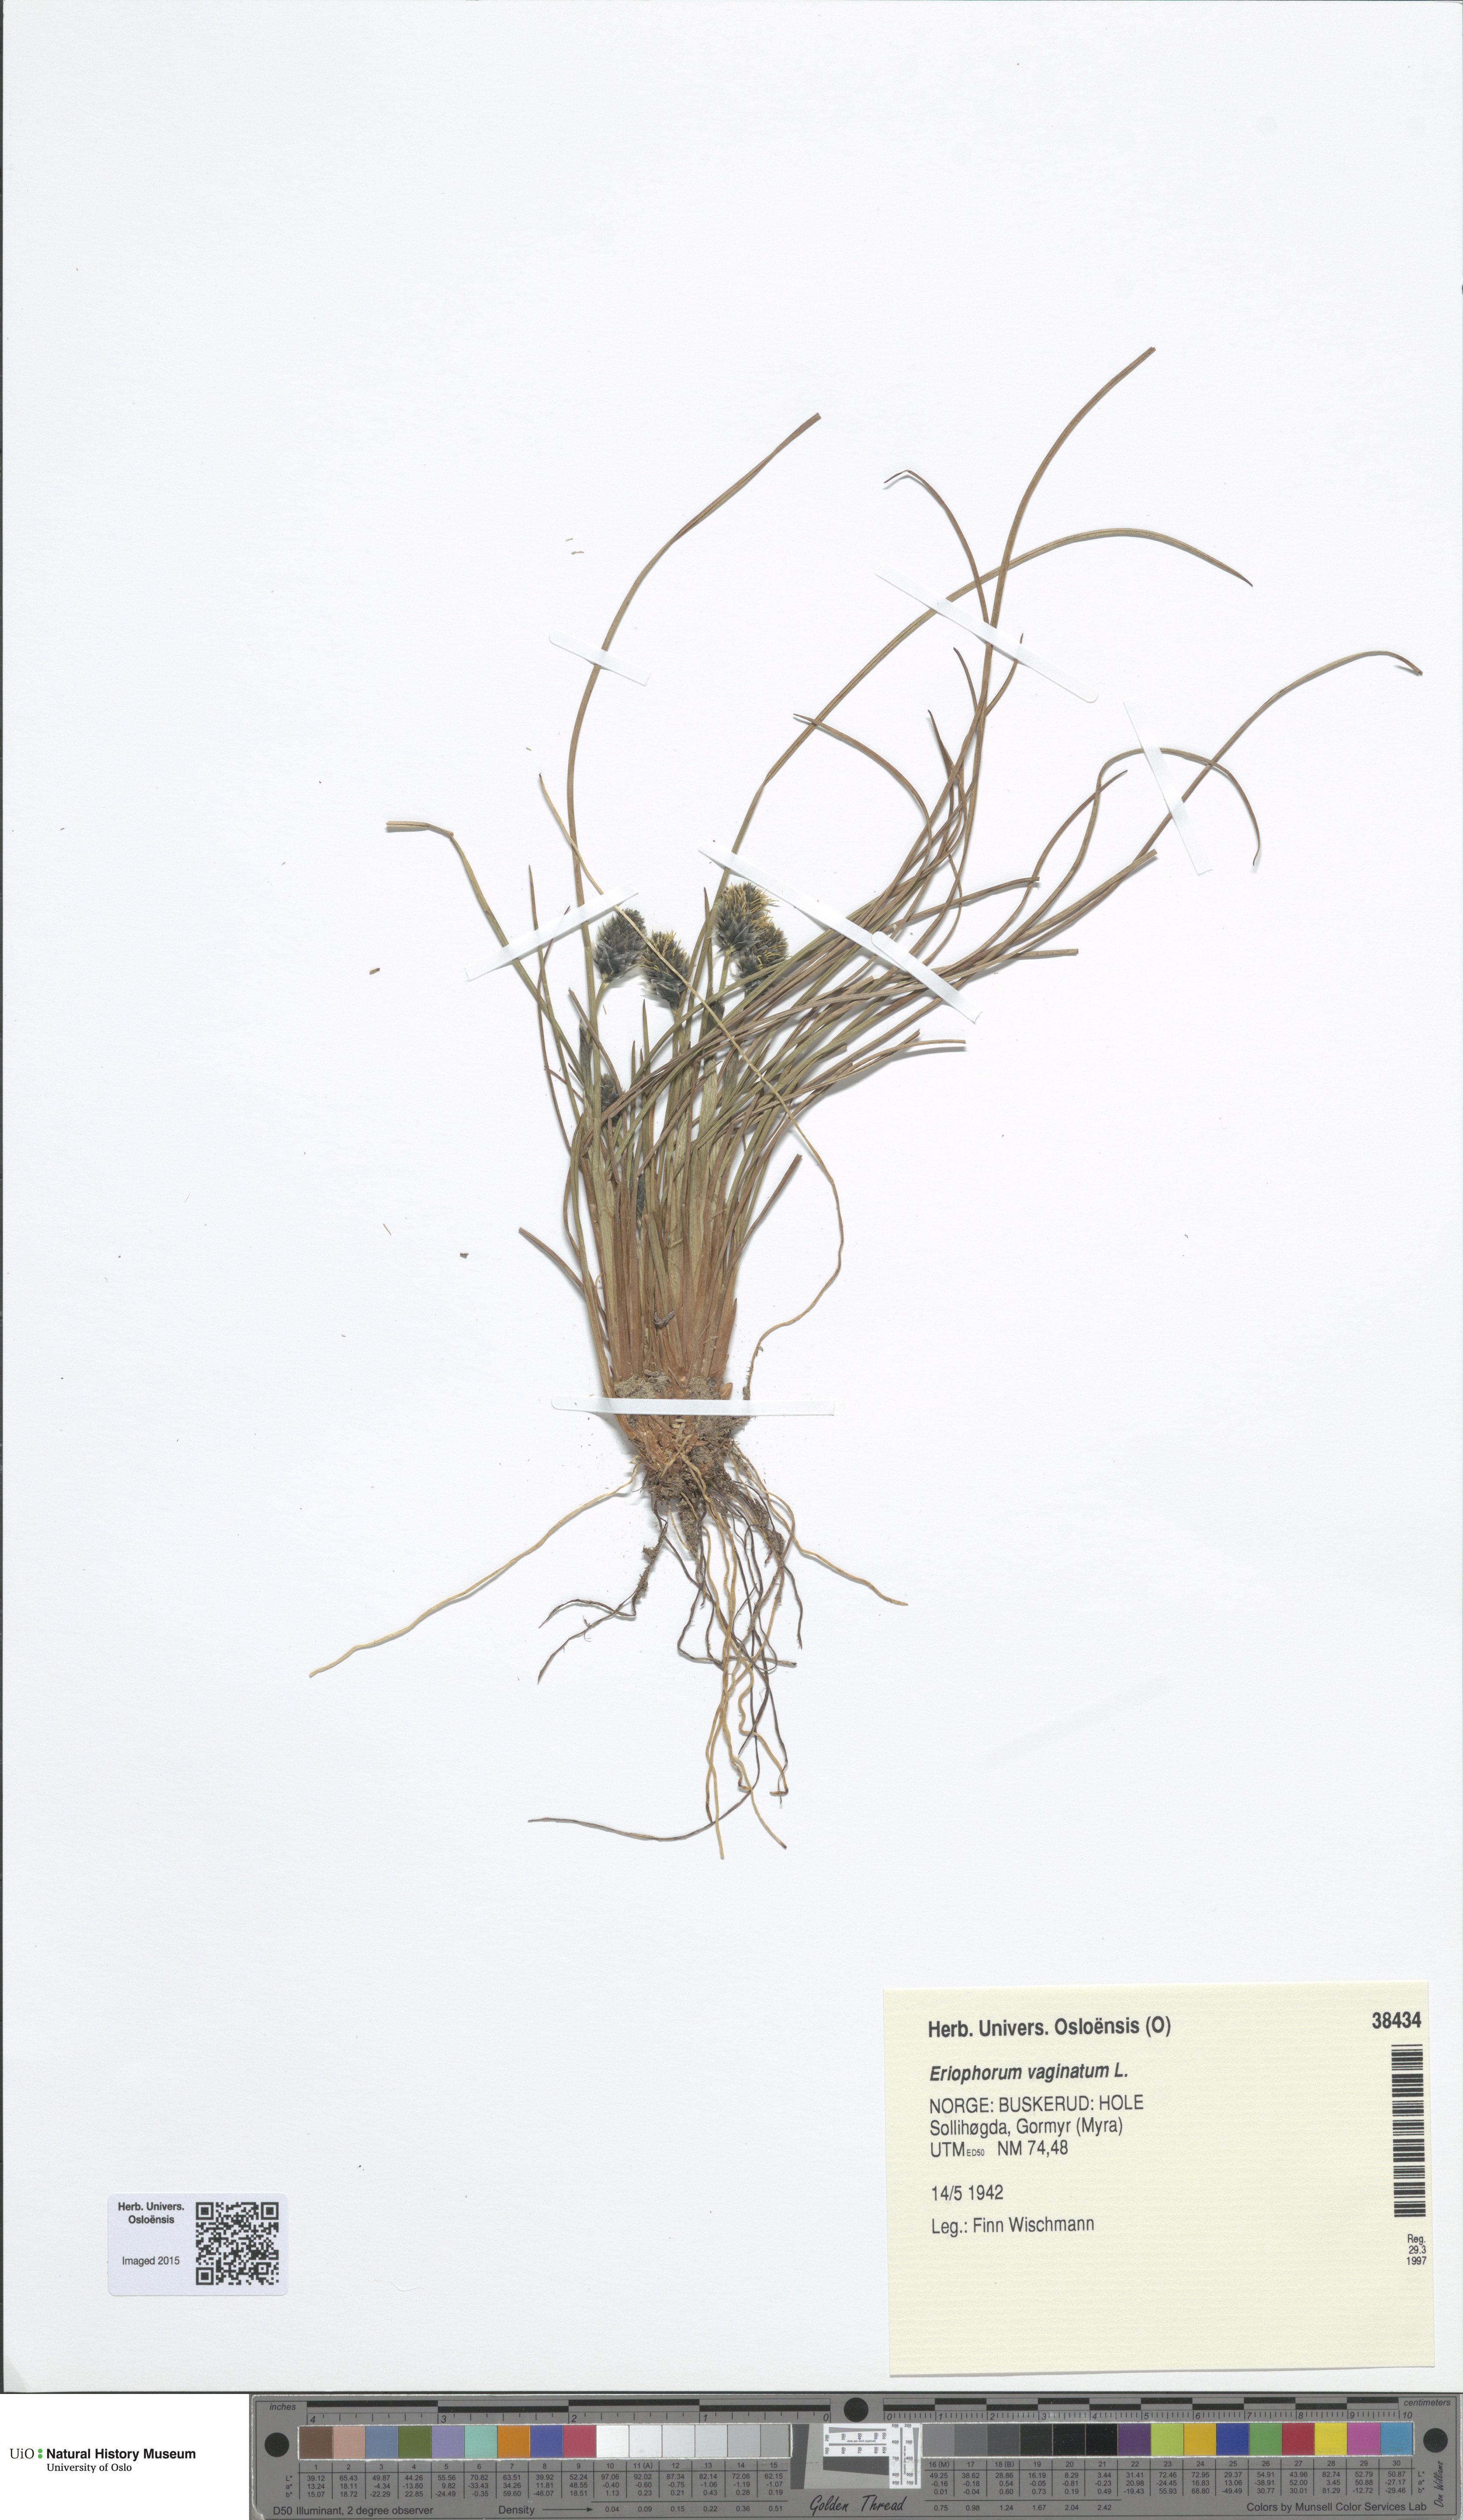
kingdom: Plantae
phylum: Tracheophyta
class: Liliopsida
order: Poales
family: Cyperaceae
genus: Eriophorum
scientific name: Eriophorum vaginatum
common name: Hare's-tail cottongrass
